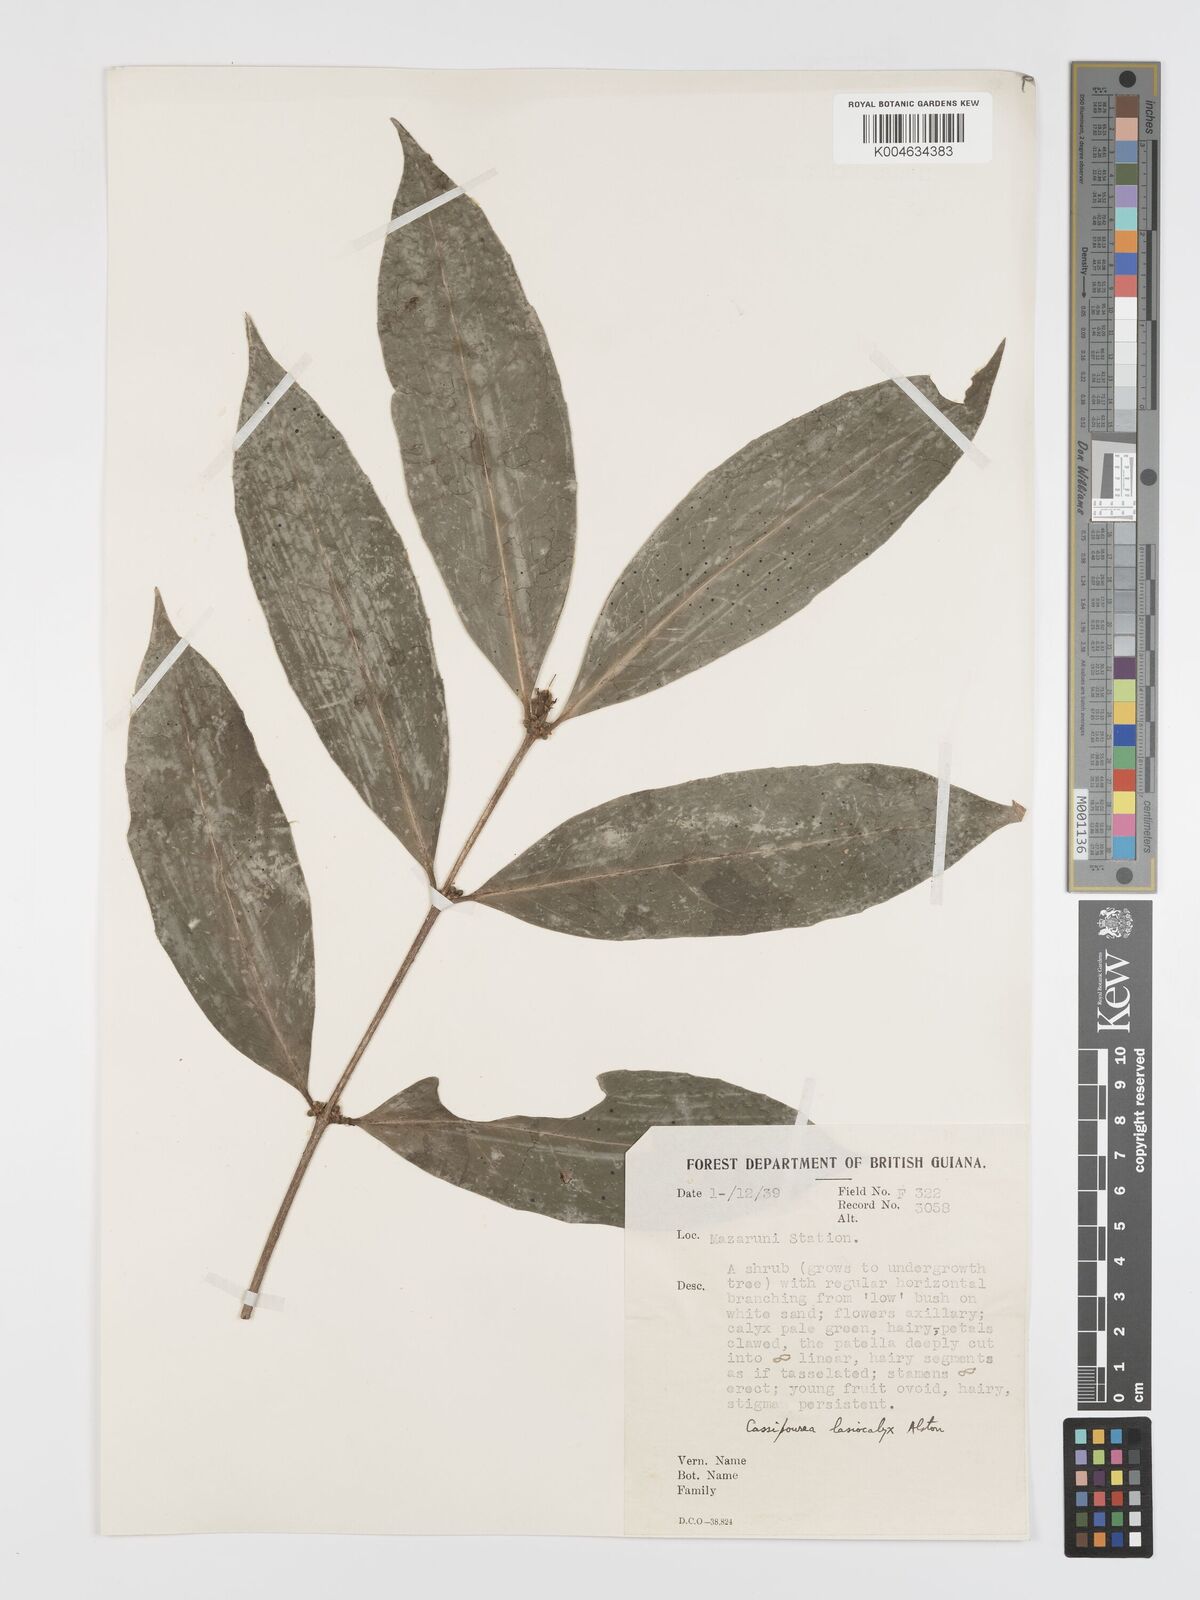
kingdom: Plantae
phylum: Tracheophyta
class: Magnoliopsida
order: Malpighiales
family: Rhizophoraceae
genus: Cassipourea
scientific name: Cassipourea lasiocalyx
